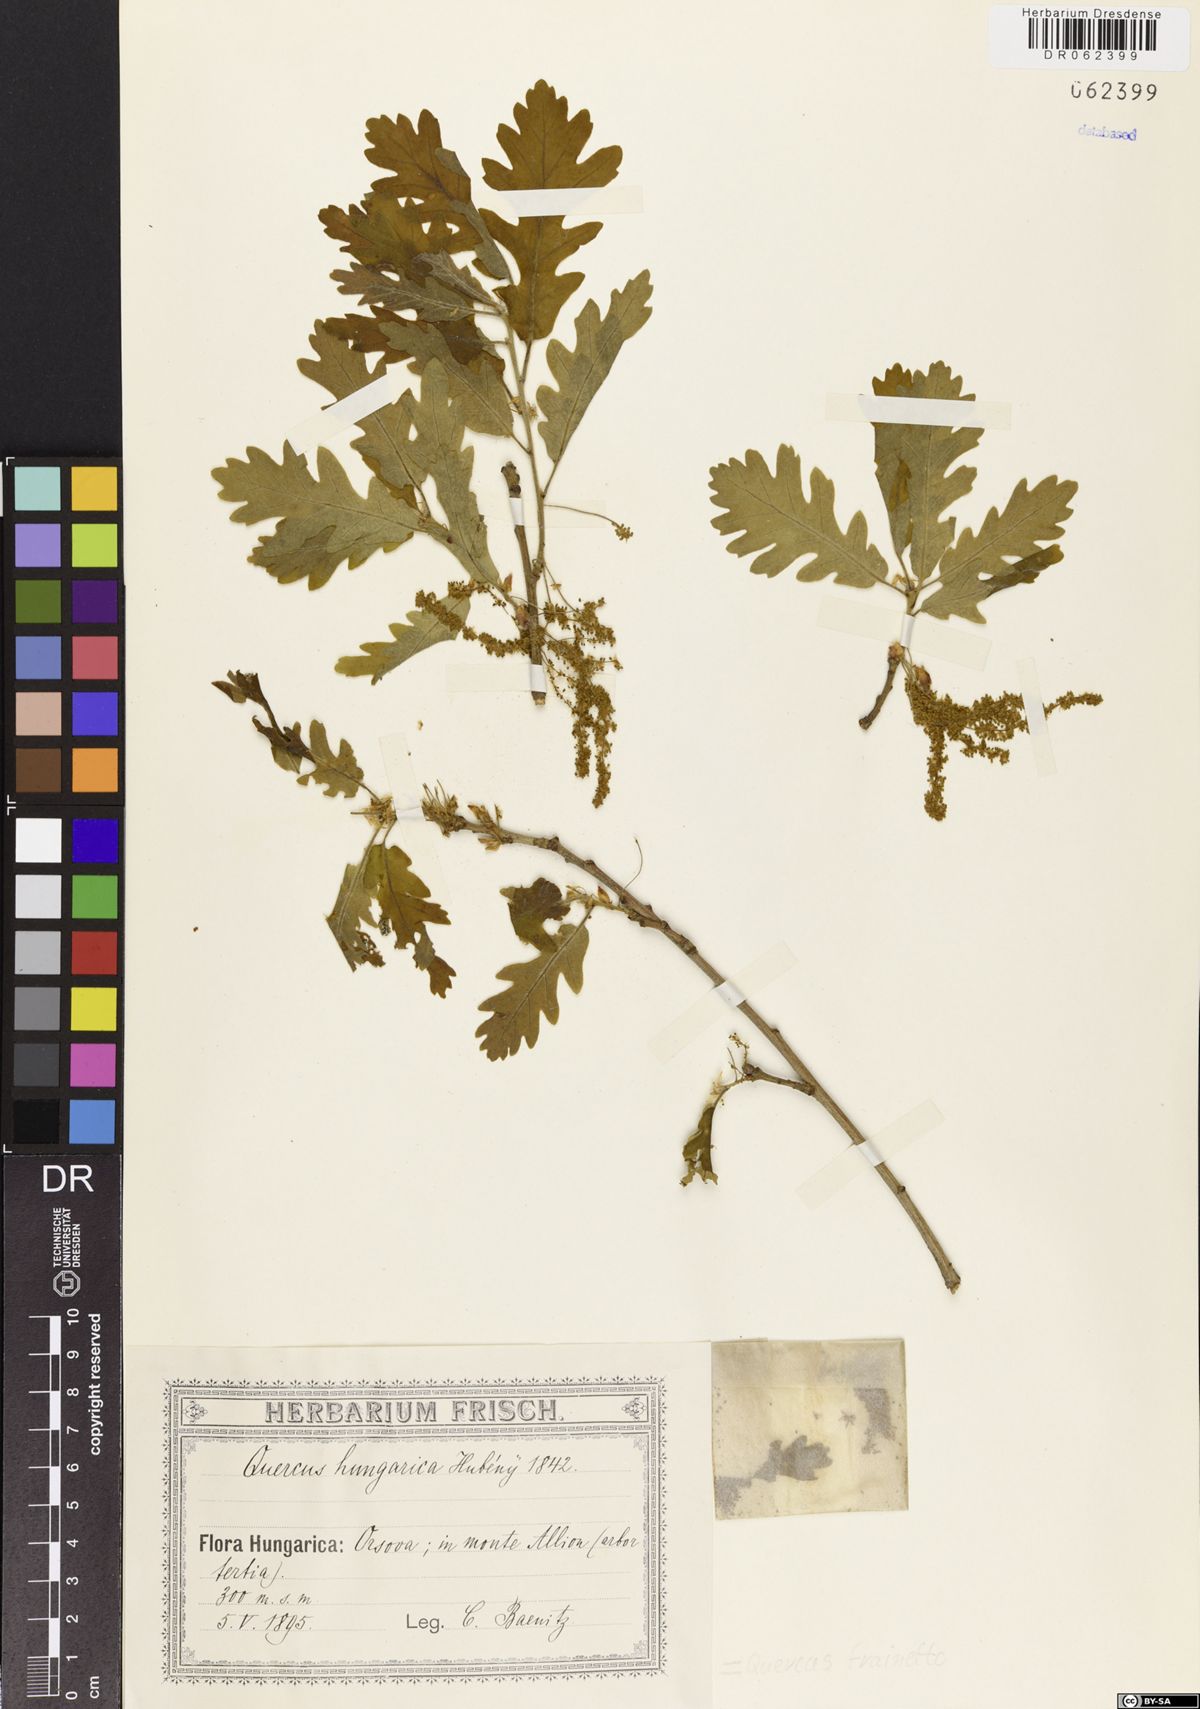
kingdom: Plantae
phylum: Tracheophyta
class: Magnoliopsida
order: Fagales
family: Fagaceae
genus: Quercus
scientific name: Quercus conferta
